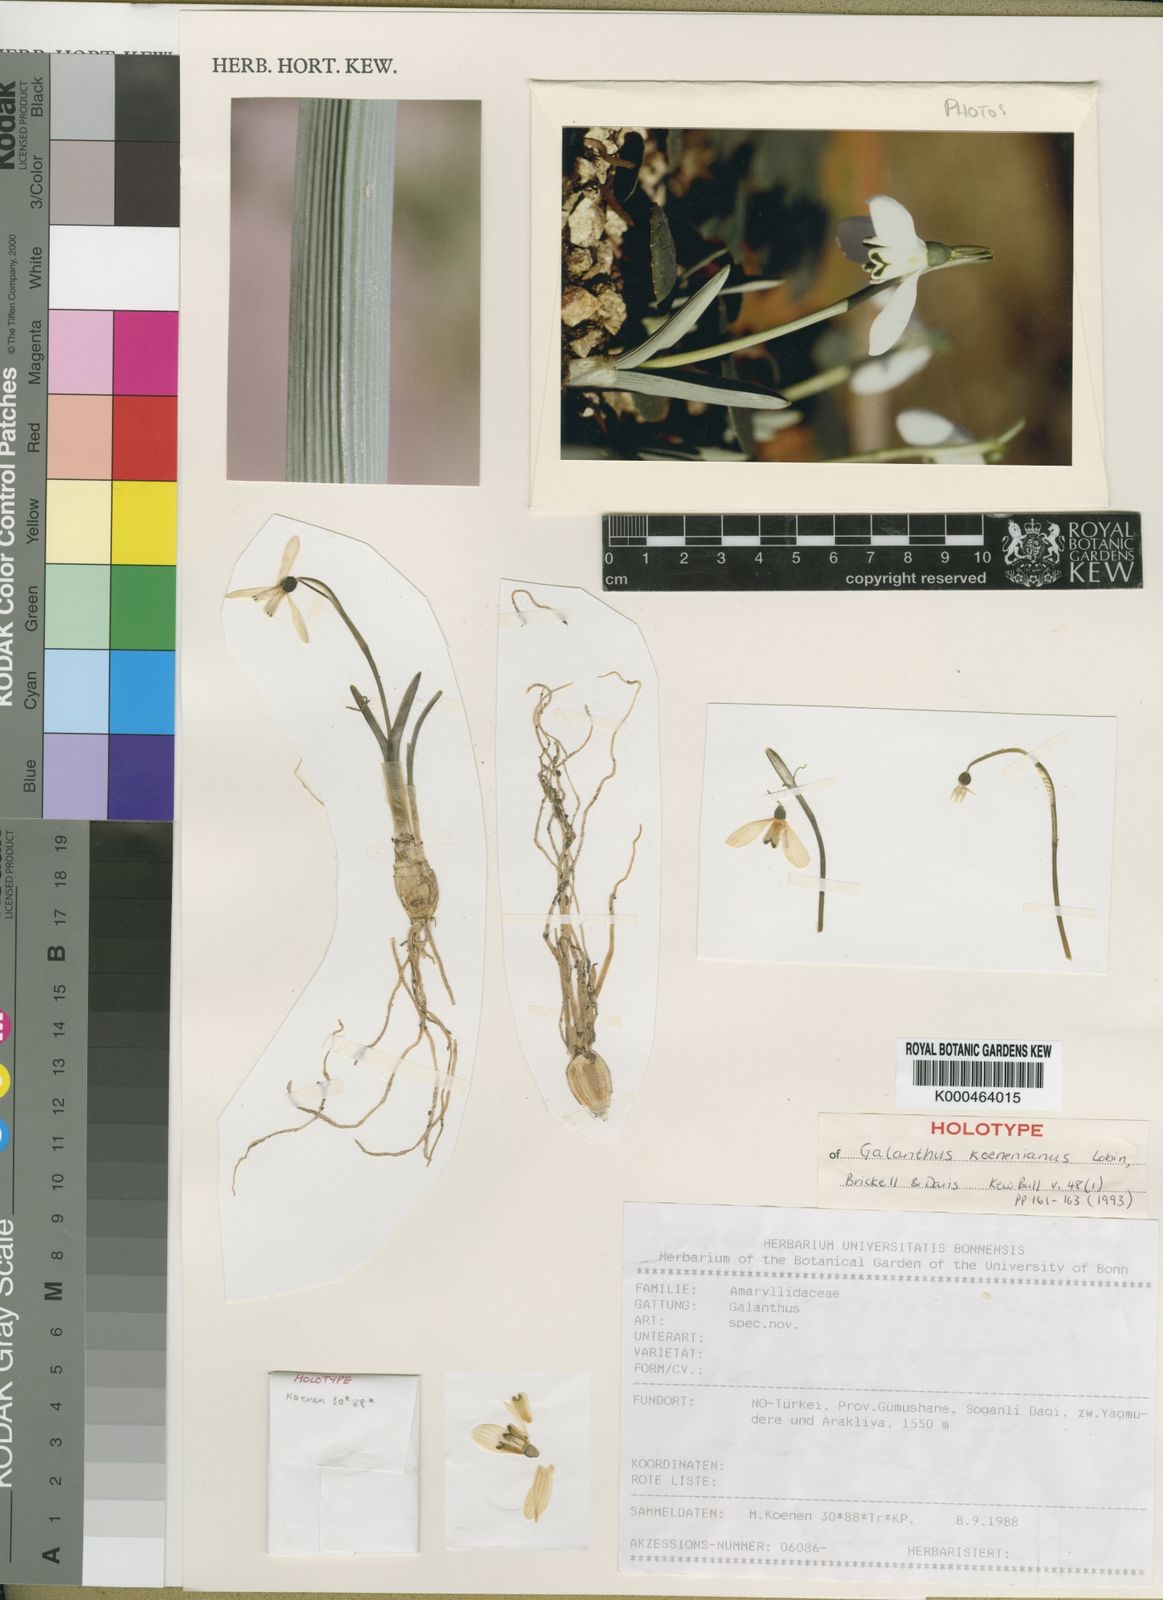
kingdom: Plantae
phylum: Tracheophyta
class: Liliopsida
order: Asparagales
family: Amaryllidaceae
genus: Galanthus
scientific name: Galanthus koenenianus
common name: Koenen's snowdrop
